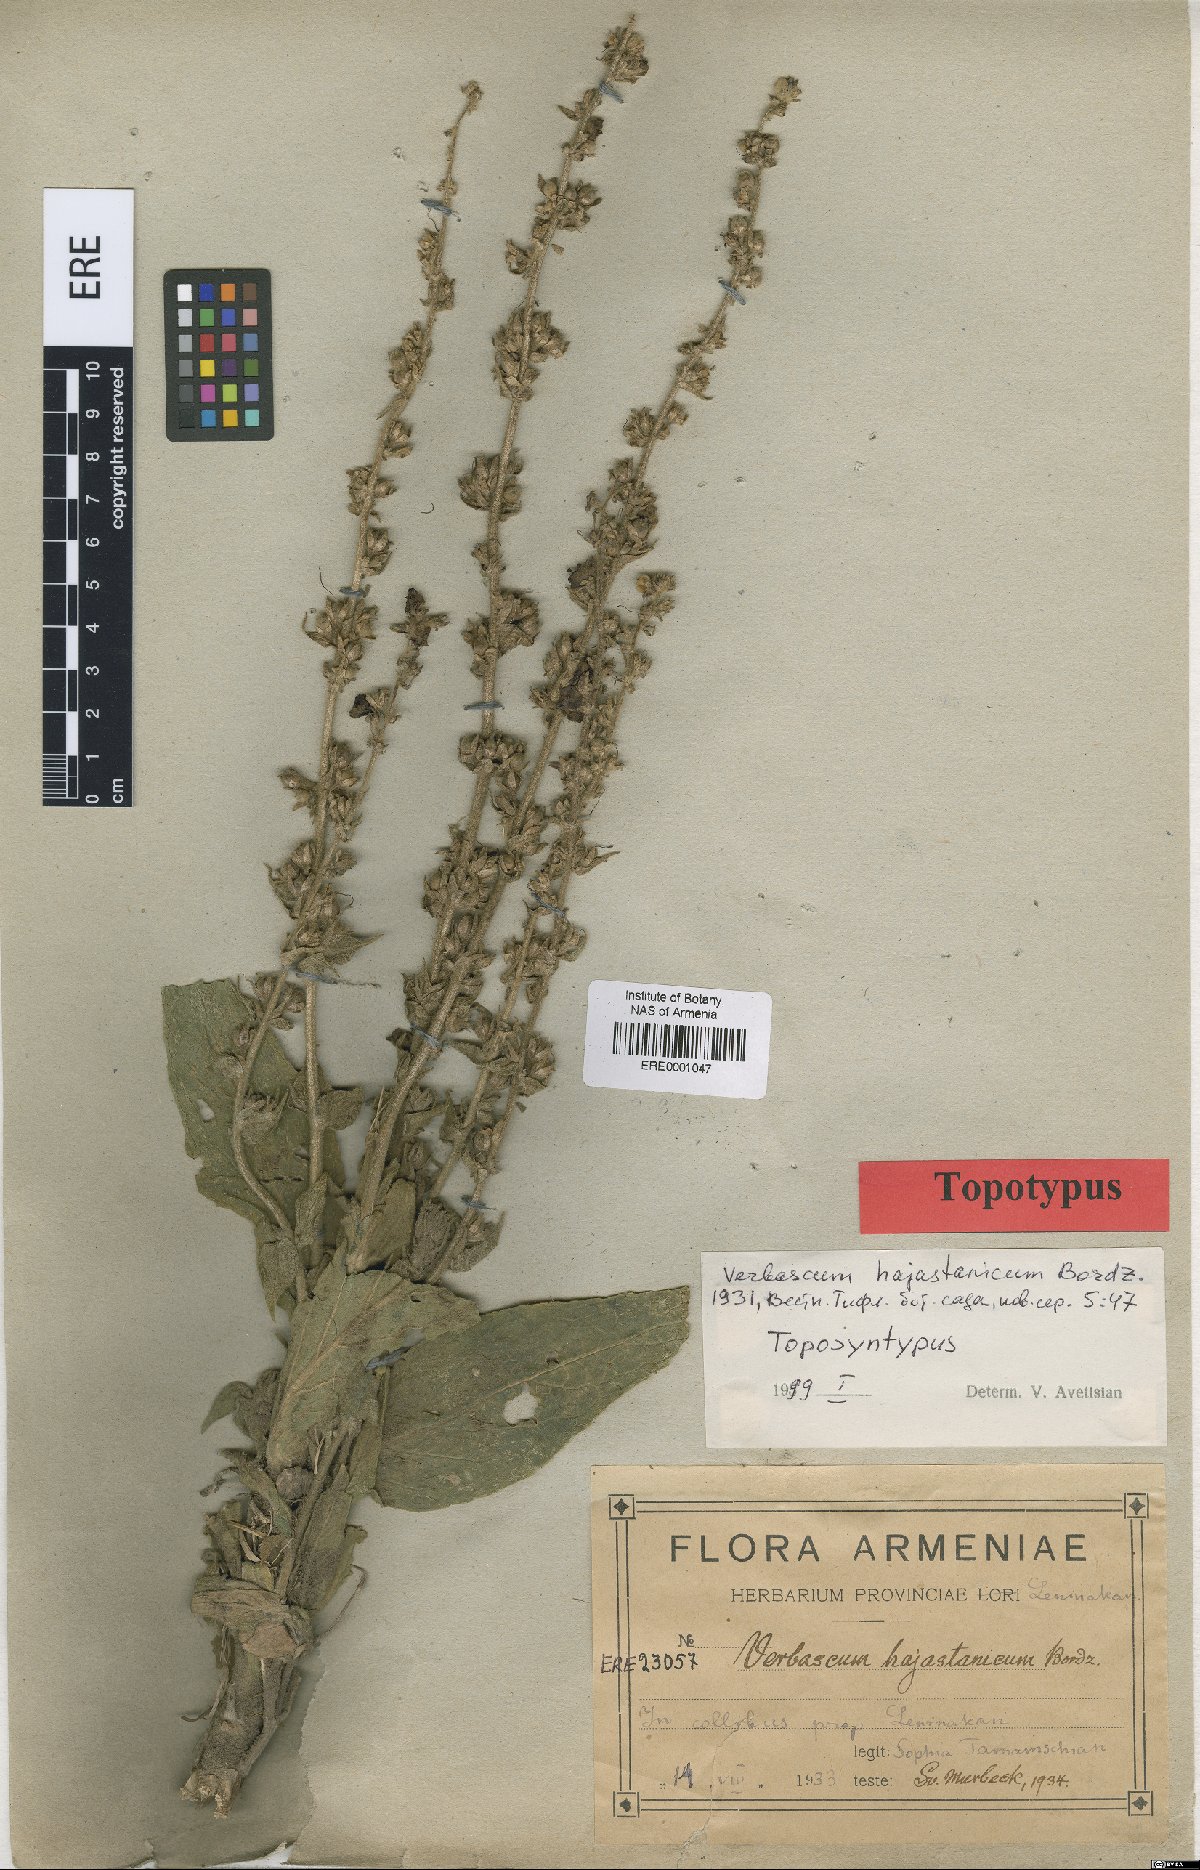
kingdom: Plantae
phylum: Tracheophyta
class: Magnoliopsida
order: Lamiales
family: Scrophulariaceae
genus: Verbascum
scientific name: Verbascum hajastanicum
